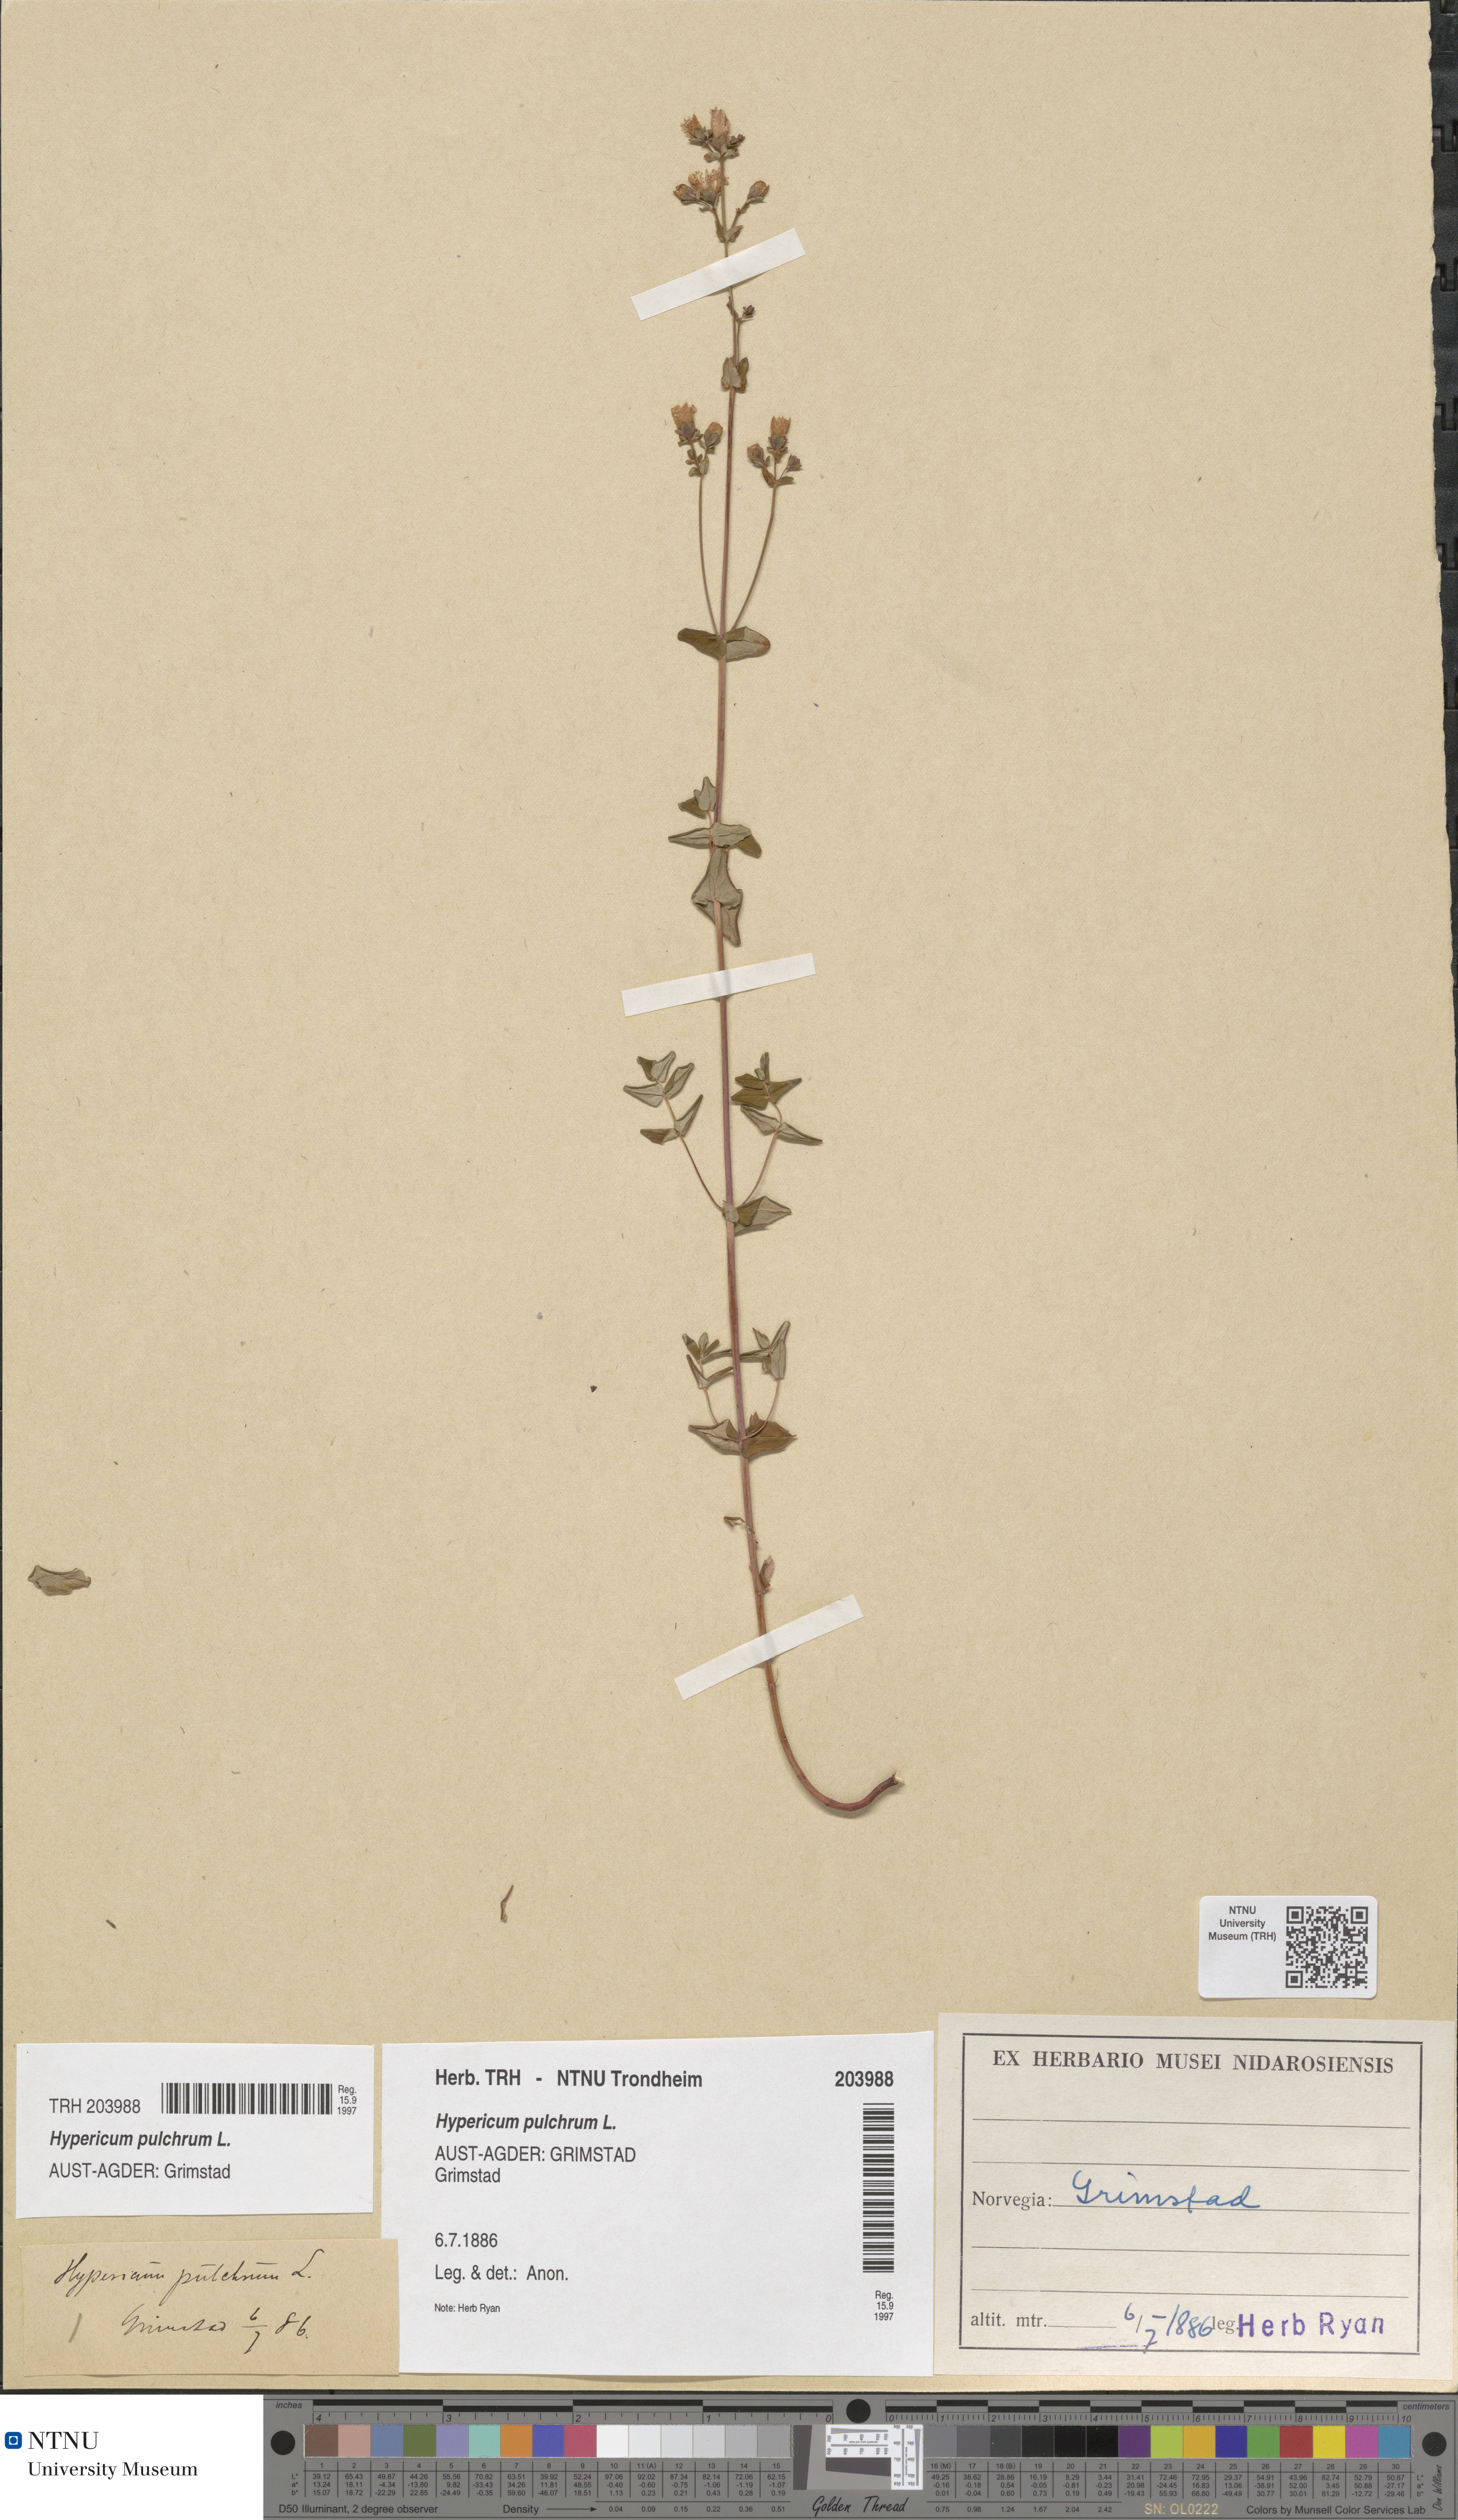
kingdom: Plantae
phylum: Tracheophyta
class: Magnoliopsida
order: Malpighiales
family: Hypericaceae
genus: Hypericum
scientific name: Hypericum pulchrum
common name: Slender st. john's-wort
